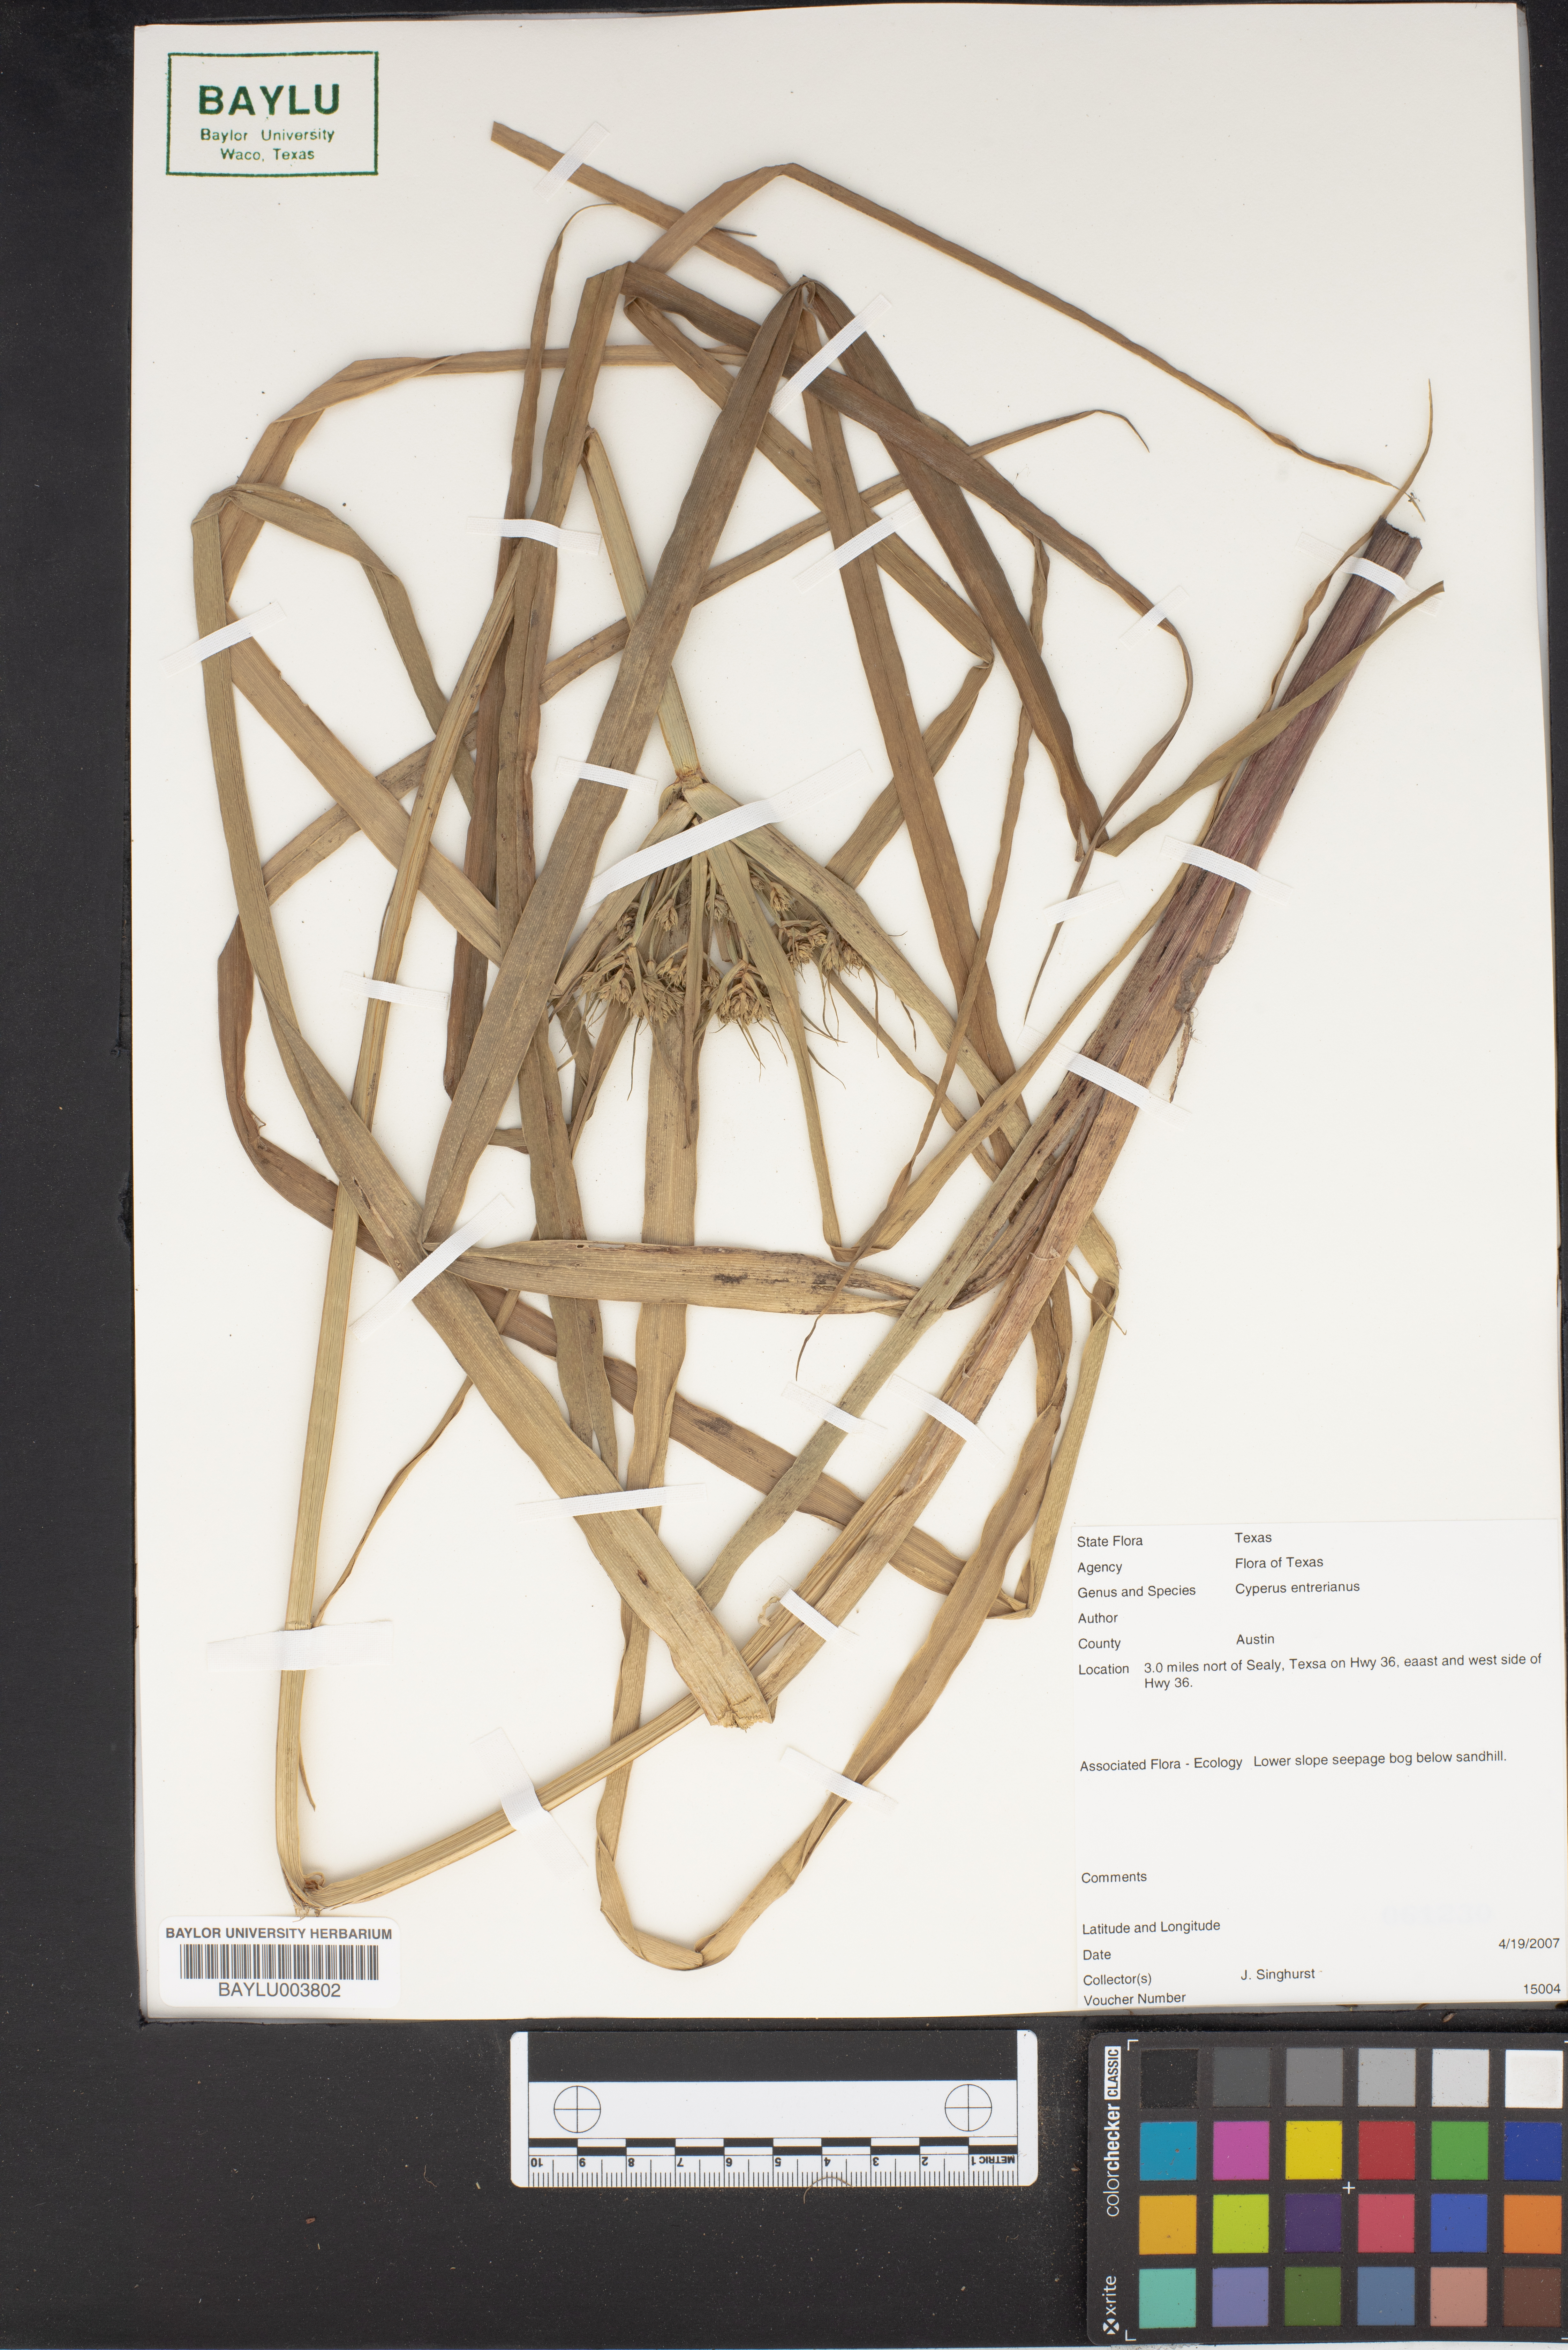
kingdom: Plantae
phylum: Tracheophyta
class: Liliopsida
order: Poales
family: Cyperaceae
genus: Cyperus
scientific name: Cyperus entrerianus
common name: Woodrush flatsedge
